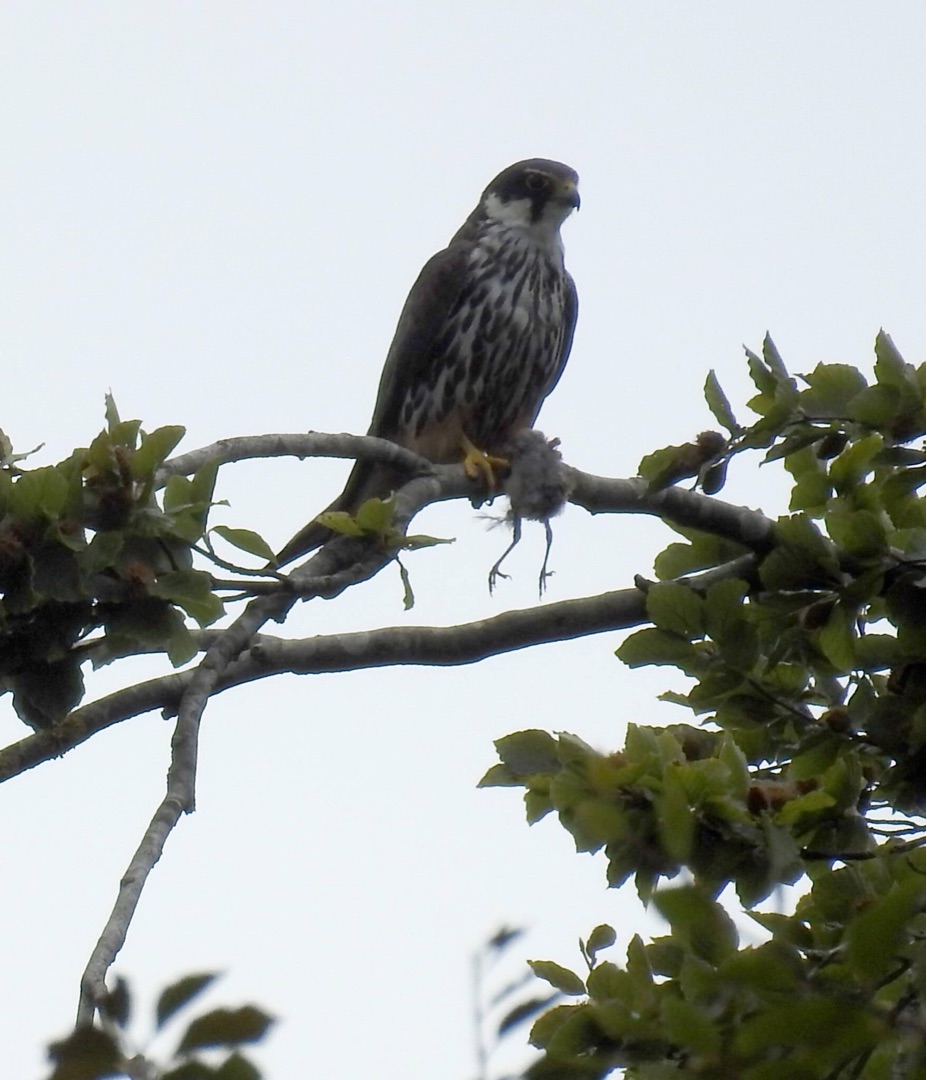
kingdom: Animalia
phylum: Chordata
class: Aves
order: Falconiformes
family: Falconidae
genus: Falco
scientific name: Falco subbuteo
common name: Lærkefalk
